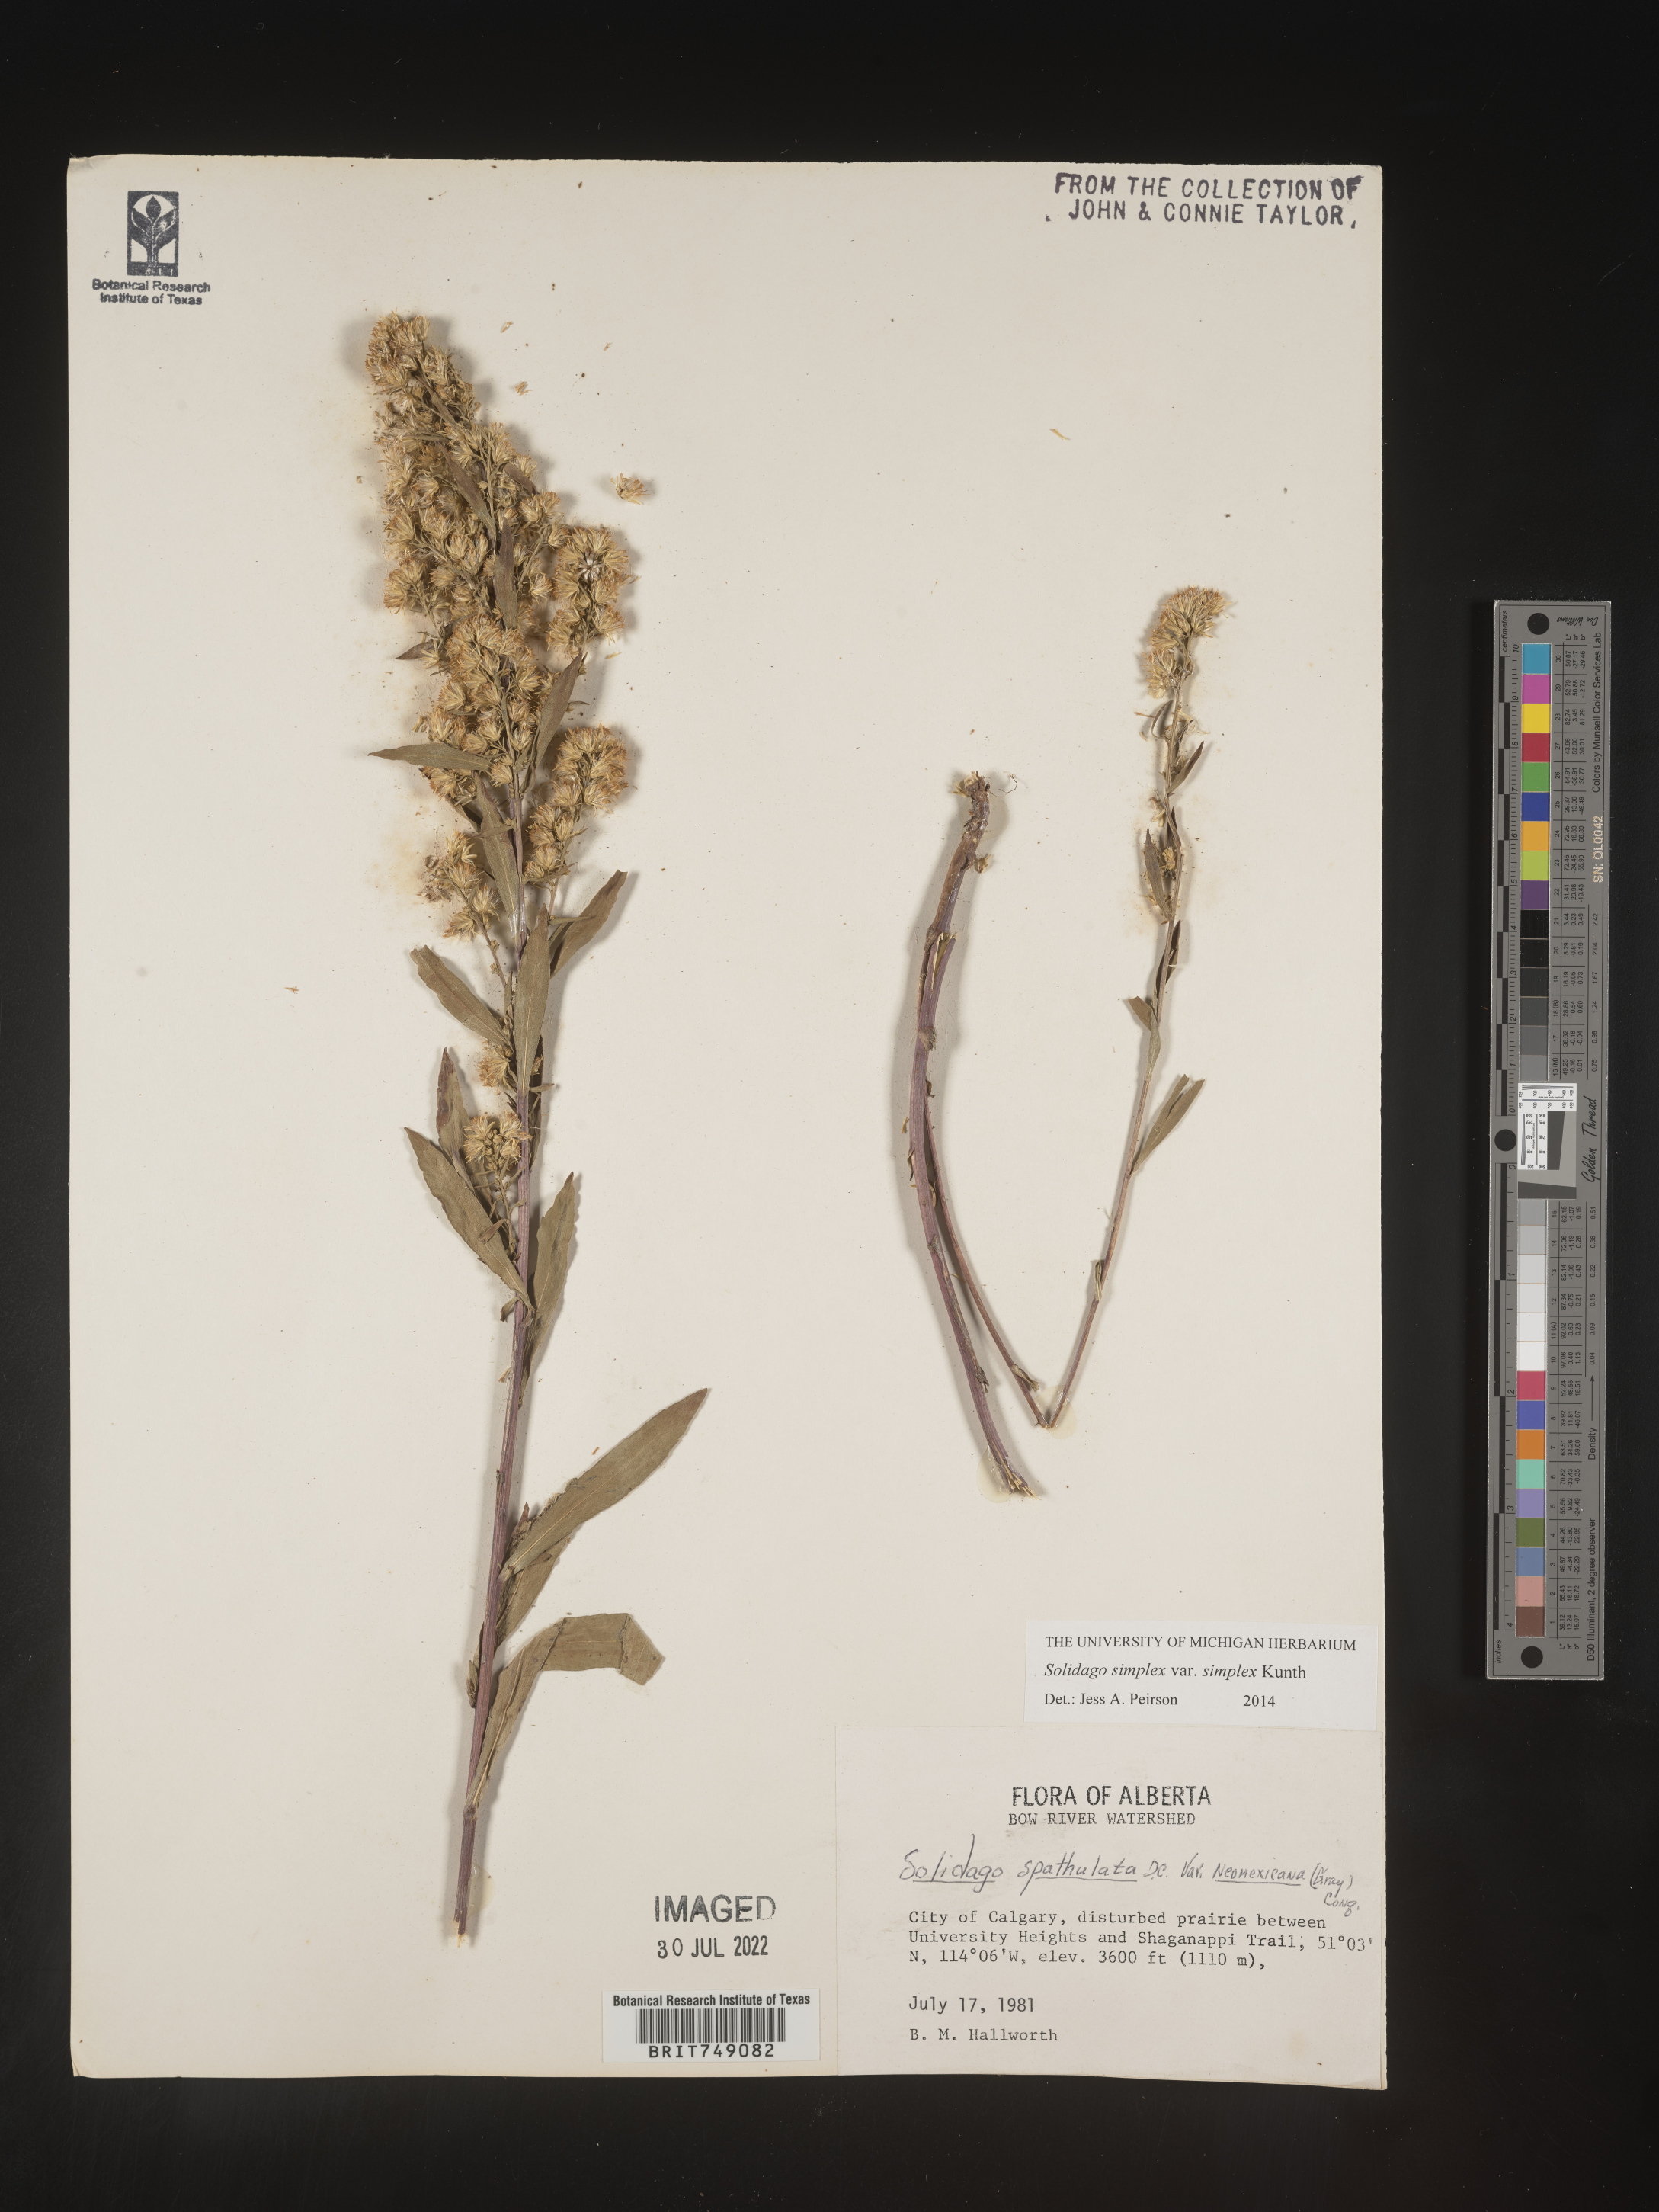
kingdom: Plantae
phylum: Tracheophyta
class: Magnoliopsida
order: Asterales
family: Asteraceae
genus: Solidago
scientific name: Solidago simplex
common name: Sticky goldenrod
